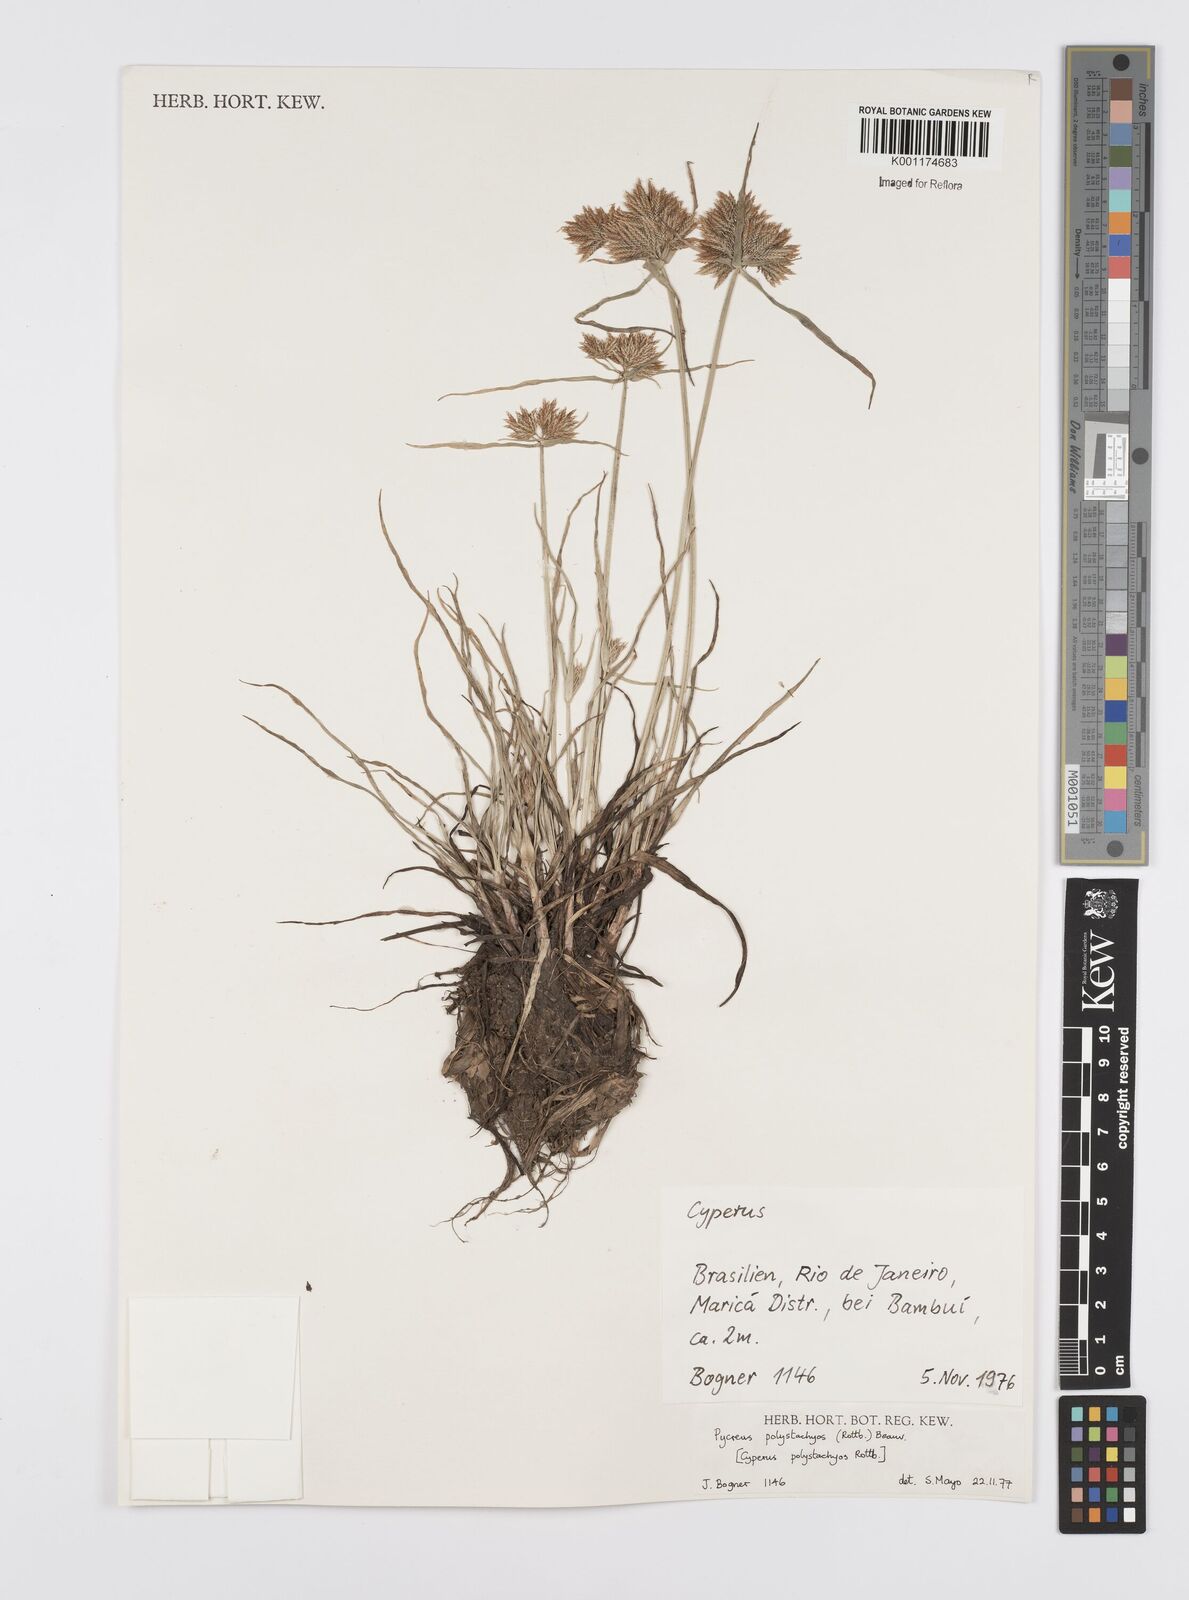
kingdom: Plantae
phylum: Tracheophyta
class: Liliopsida
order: Poales
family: Cyperaceae
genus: Cyperus
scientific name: Cyperus polystachyos
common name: Bunchy flat sedge
